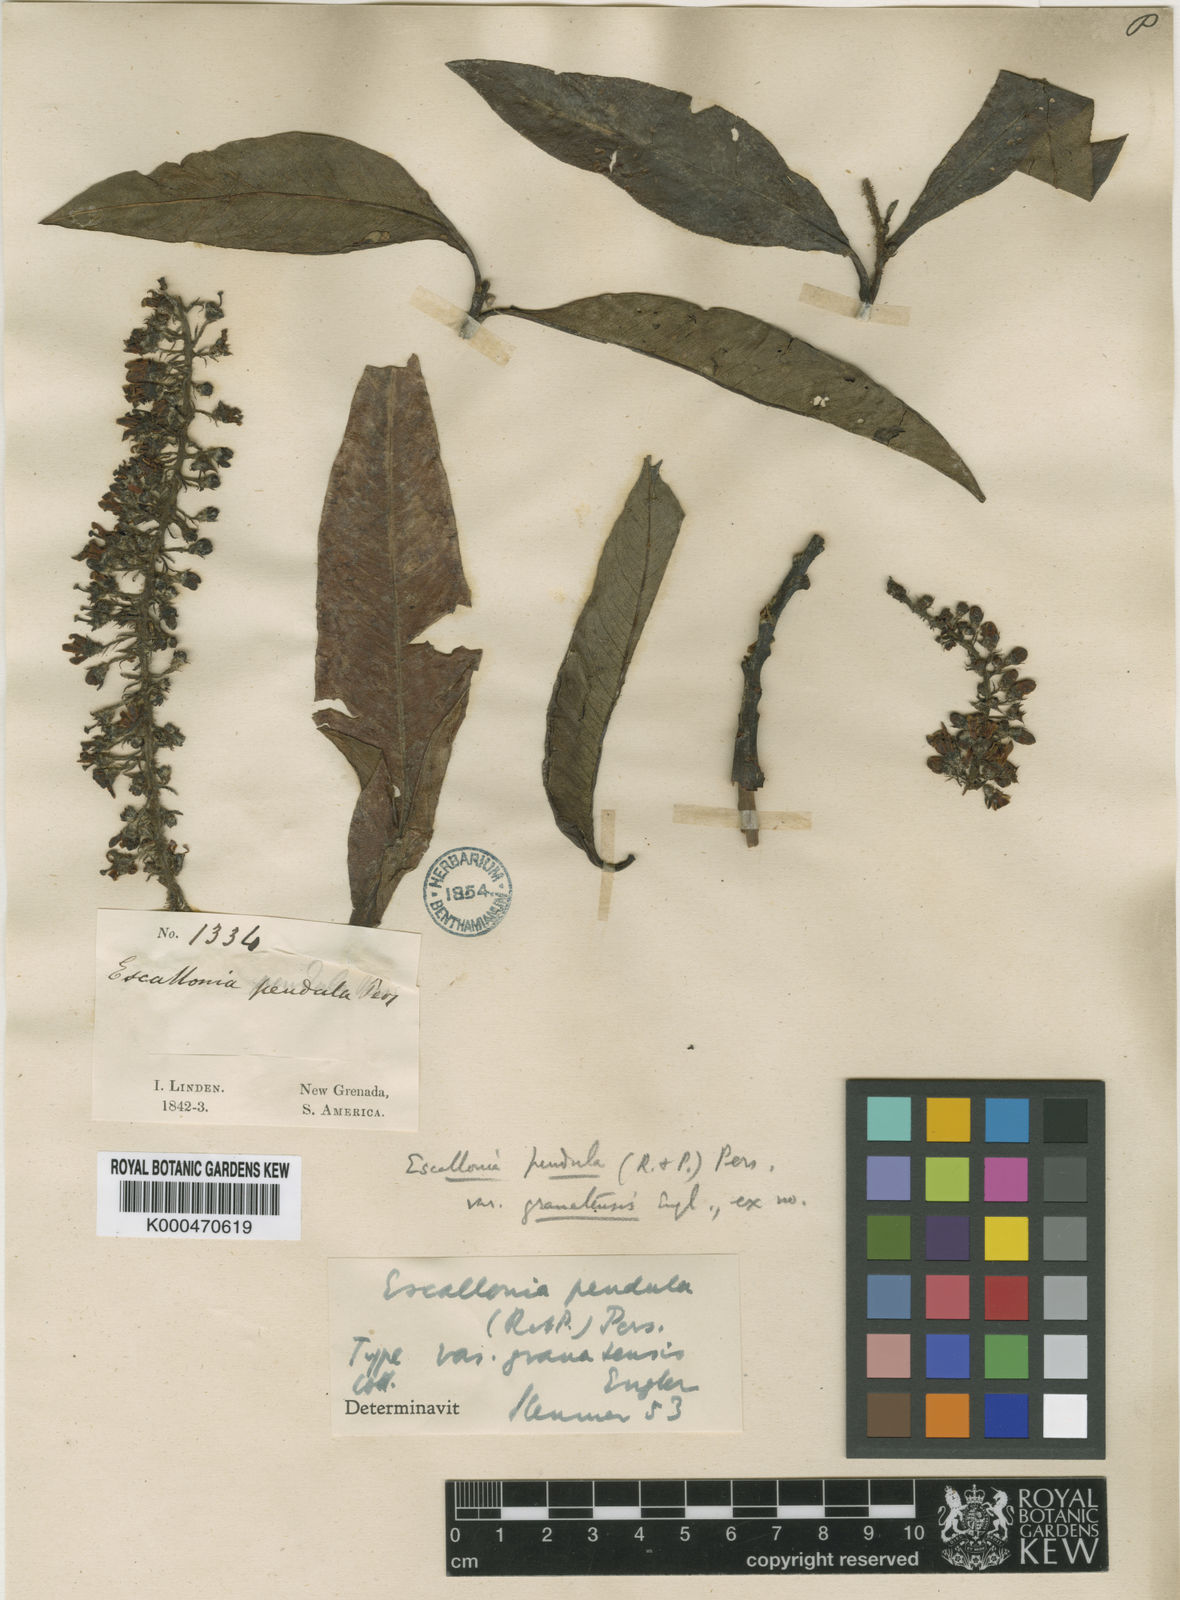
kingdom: Plantae
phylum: Tracheophyta
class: Magnoliopsida
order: Escalloniales
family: Escalloniaceae
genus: Escallonia
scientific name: Escallonia pendula
